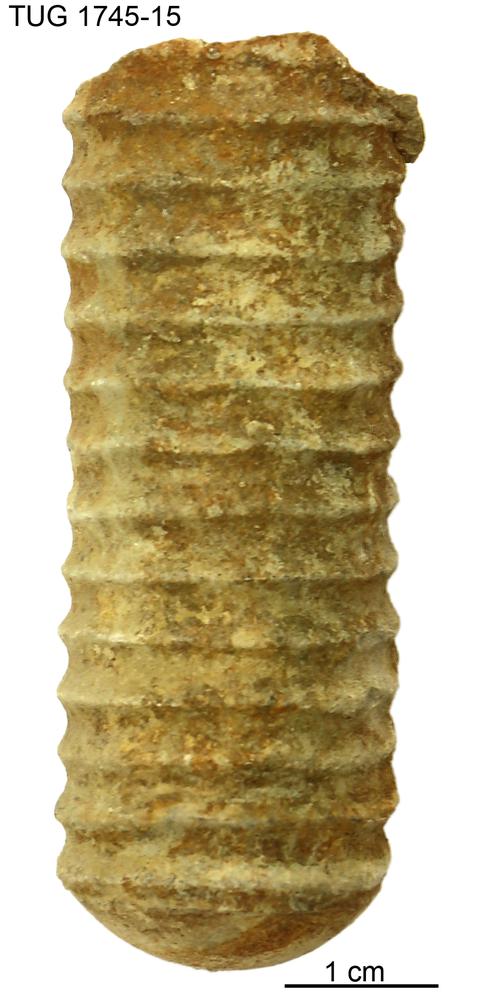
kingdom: Animalia
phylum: Mollusca
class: Cephalopoda
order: Nautilida
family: Nautilidae
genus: Dawsonoceras
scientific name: Dawsonoceras
